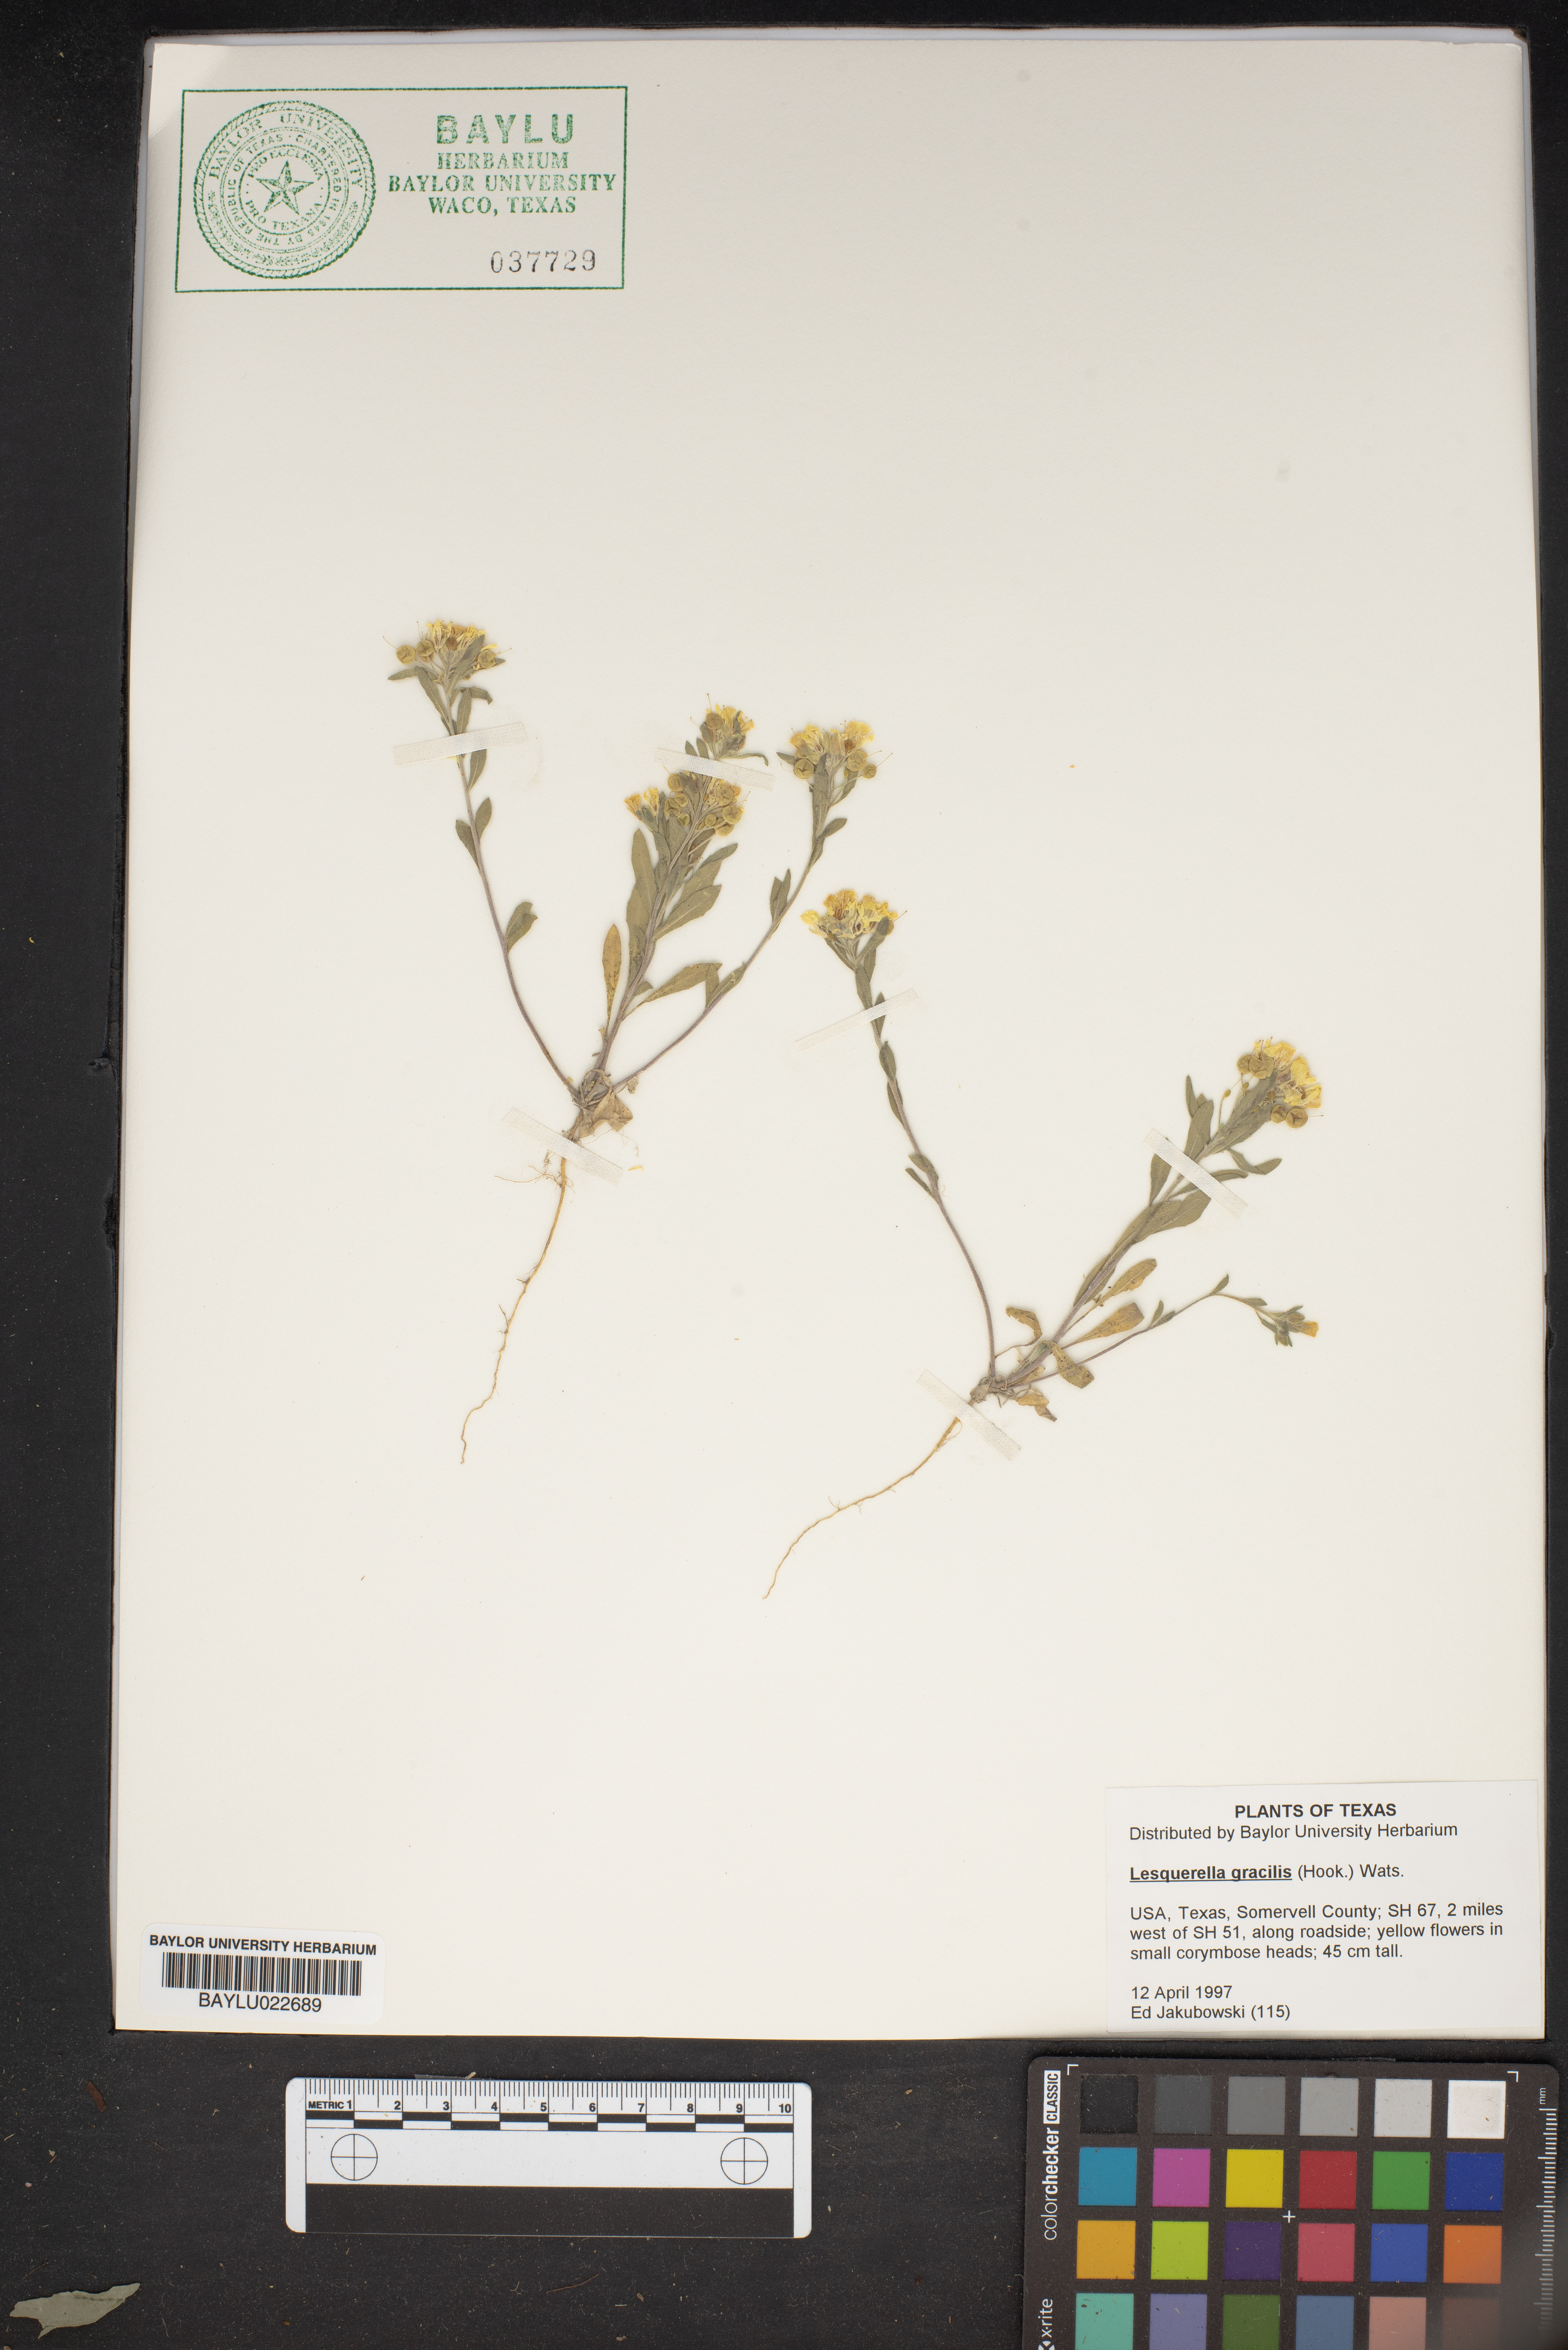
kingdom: Plantae
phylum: Tracheophyta
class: Magnoliopsida
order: Brassicales
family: Brassicaceae
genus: Physaria
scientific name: Physaria gracilis
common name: Spreading bladderpod
